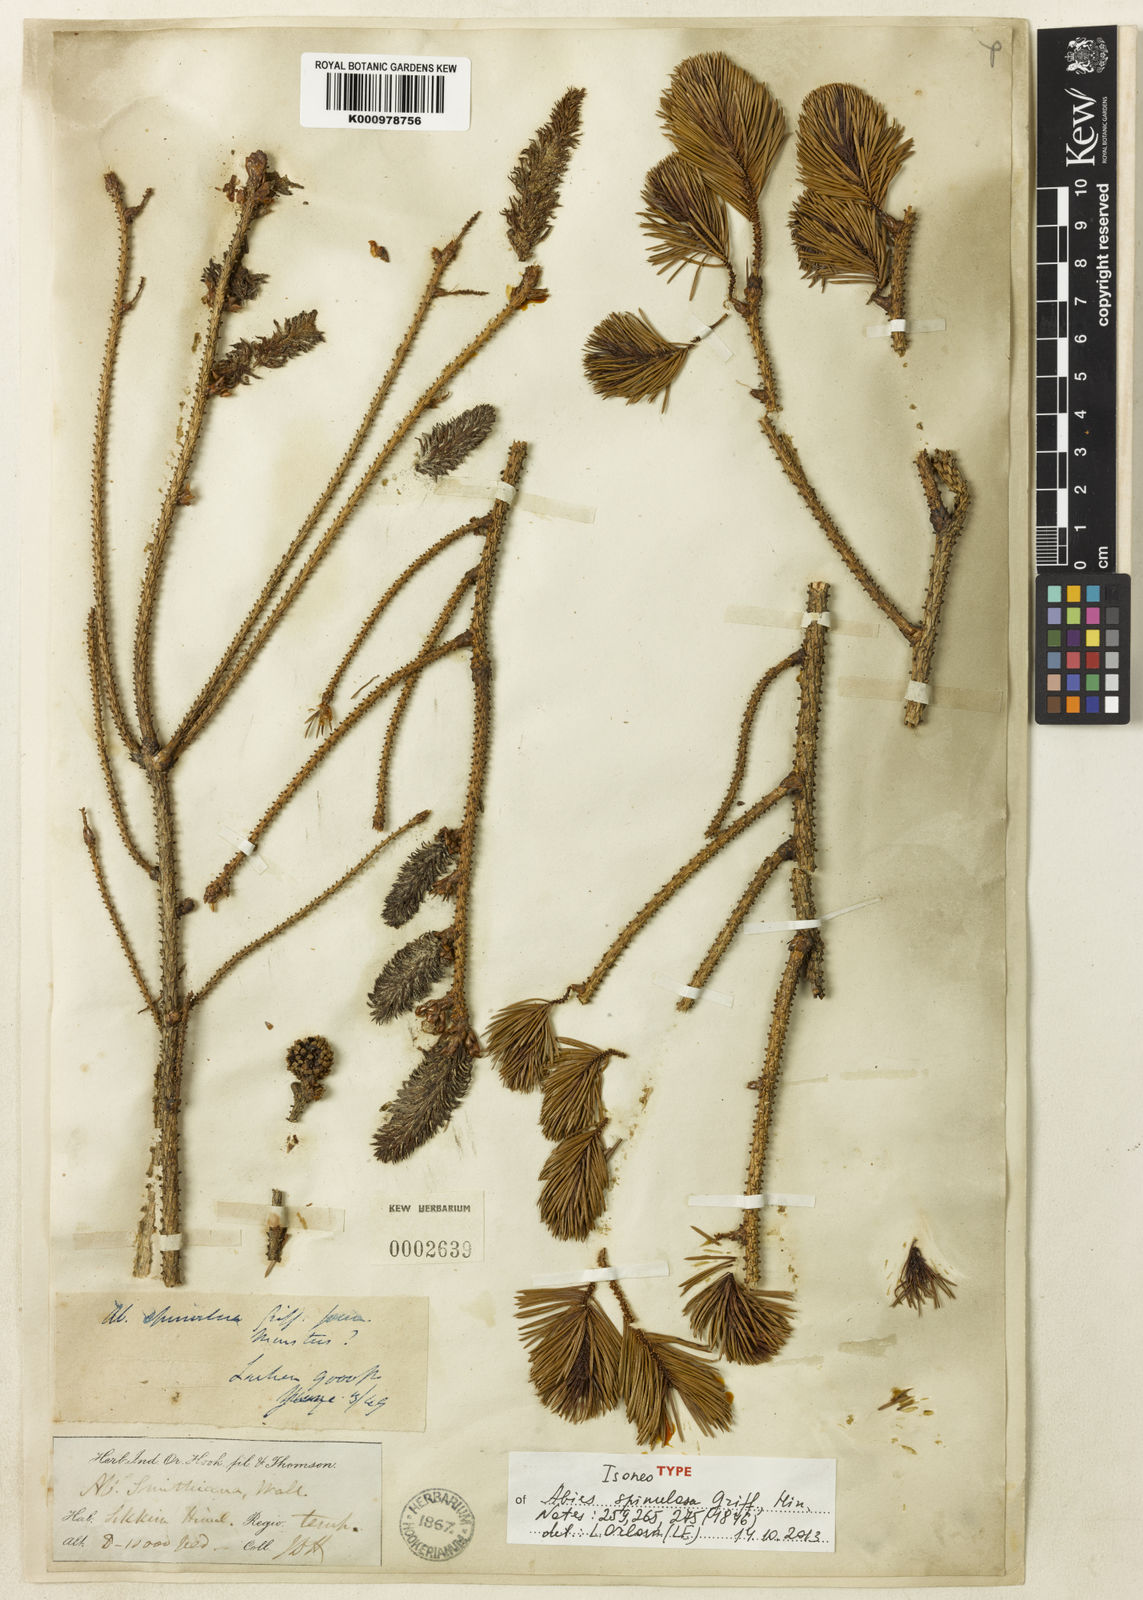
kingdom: Plantae
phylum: Tracheophyta
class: Pinopsida
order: Pinales
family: Pinaceae
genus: Picea
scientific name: Picea spinulosa
